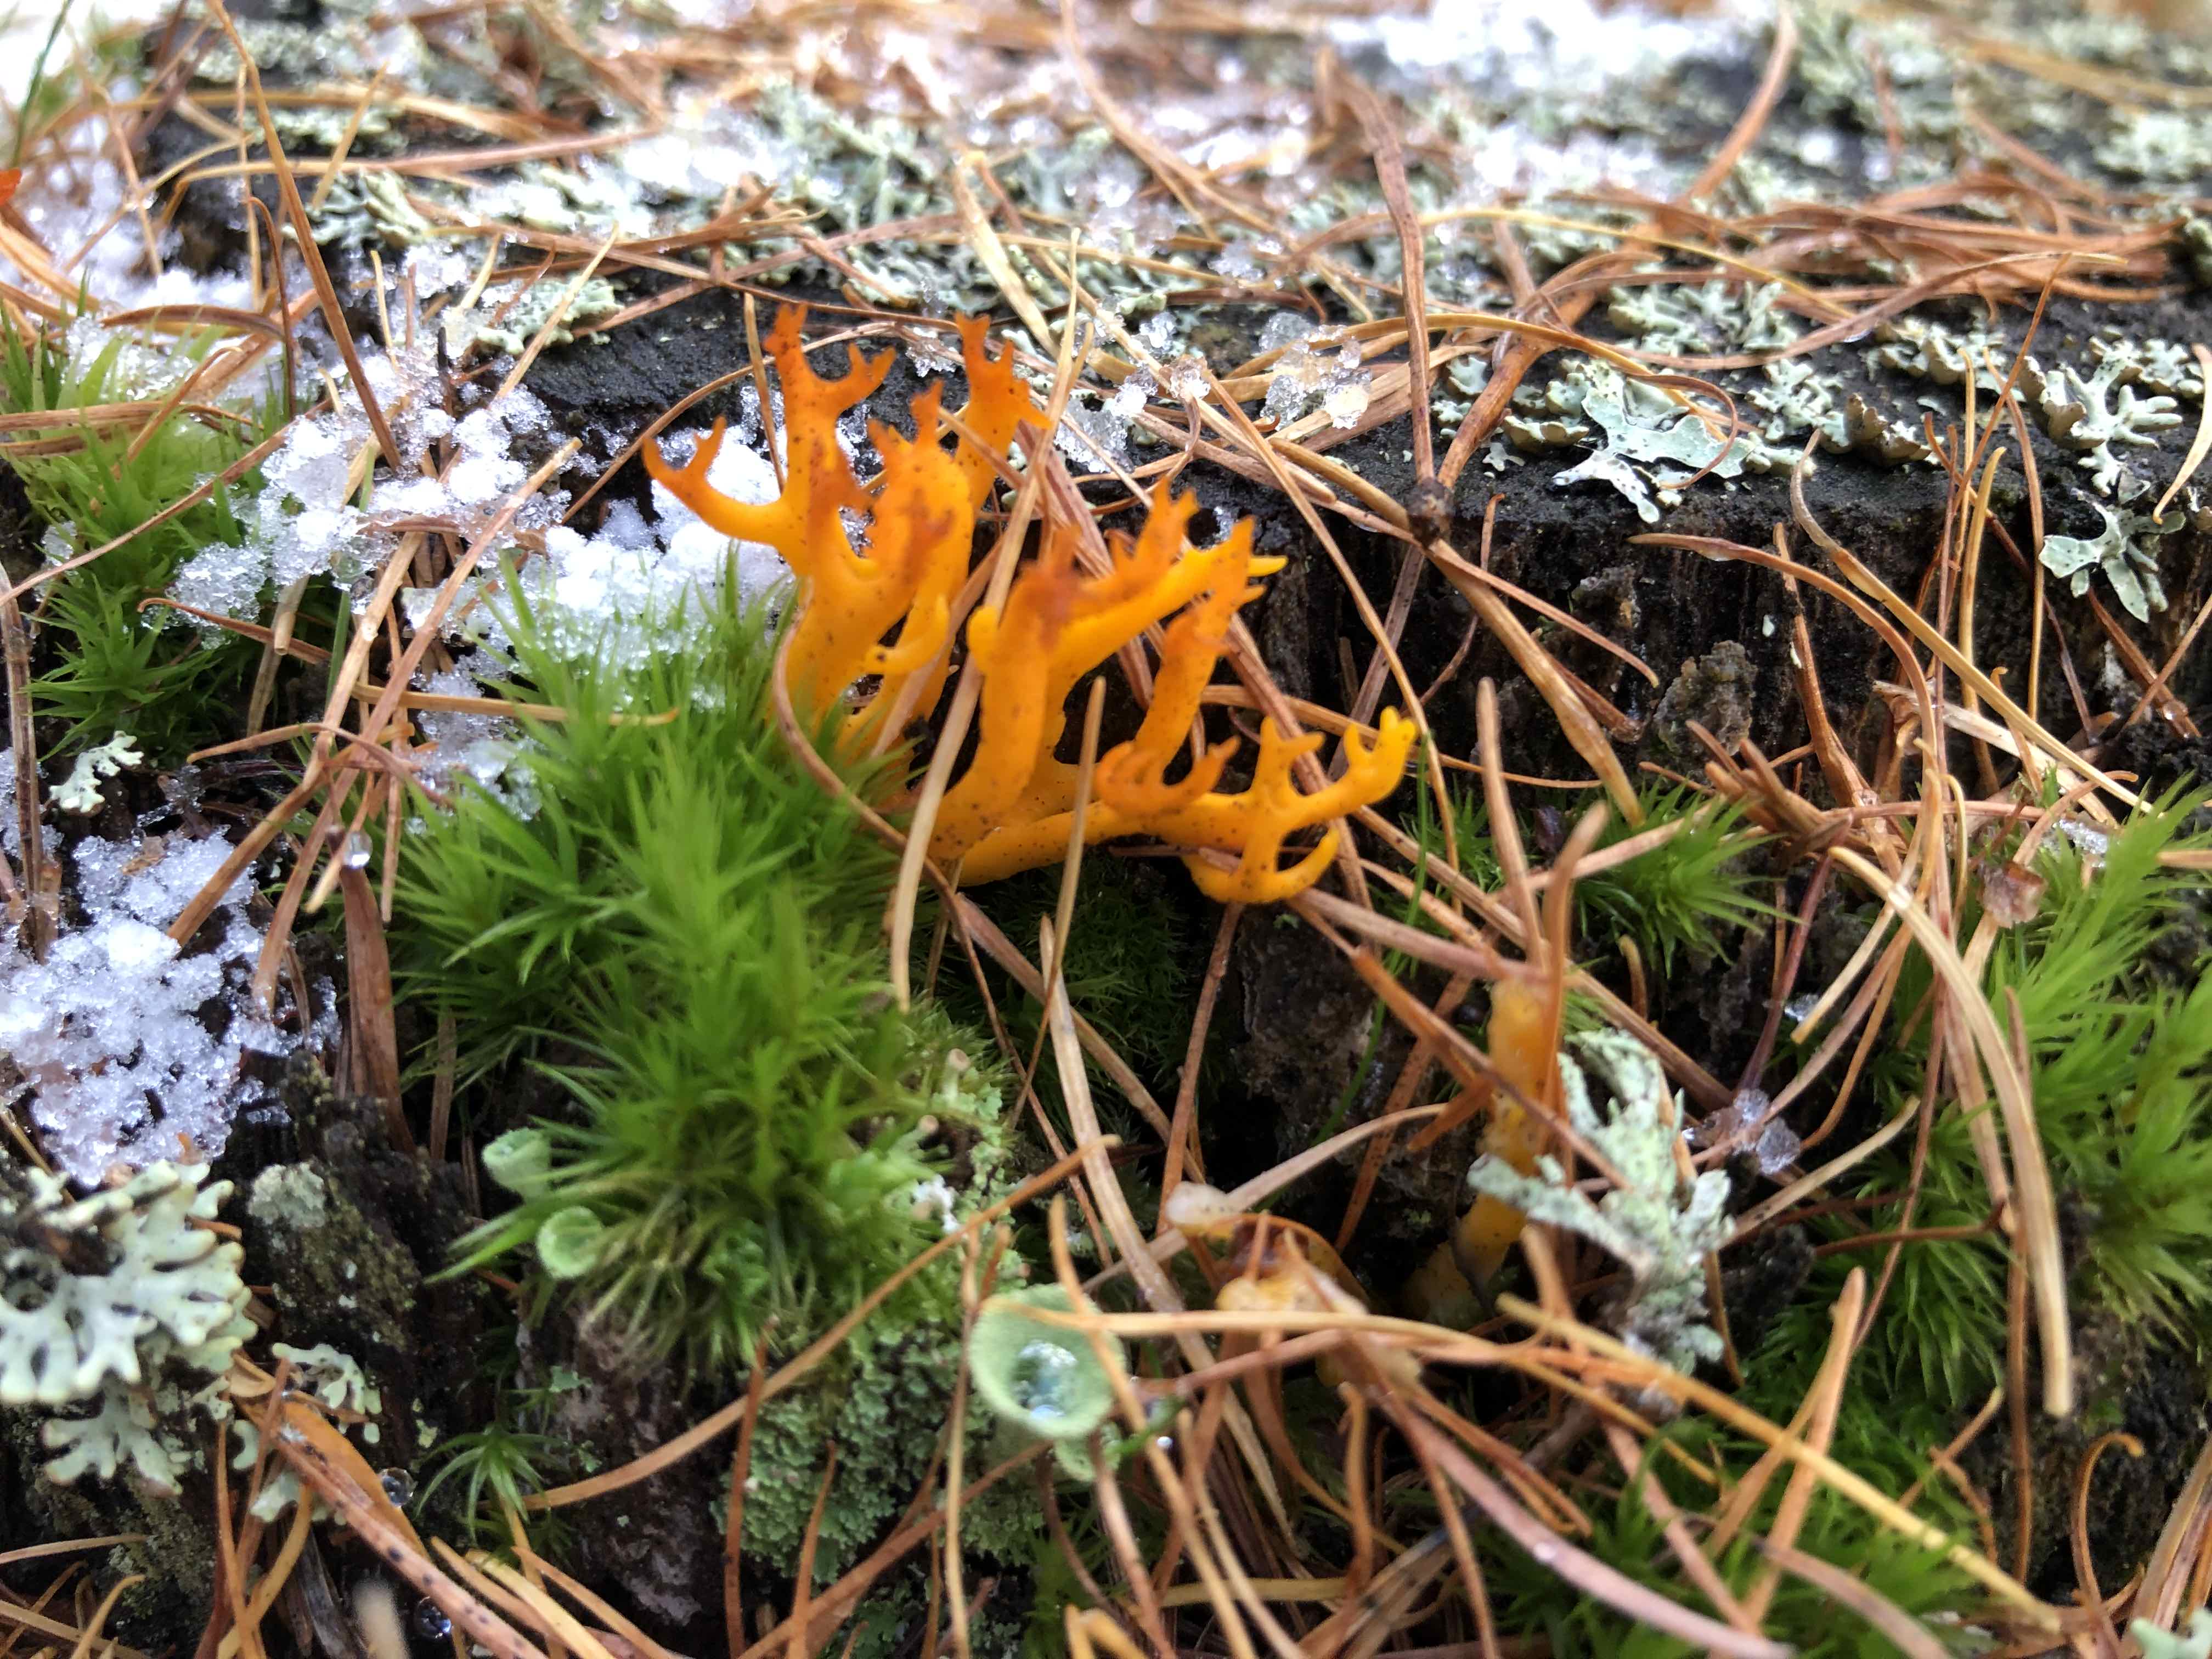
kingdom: Fungi
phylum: Basidiomycota
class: Dacrymycetes
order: Dacrymycetales
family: Dacrymycetaceae
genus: Calocera
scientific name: Calocera viscosa
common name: almindelig guldgaffel
